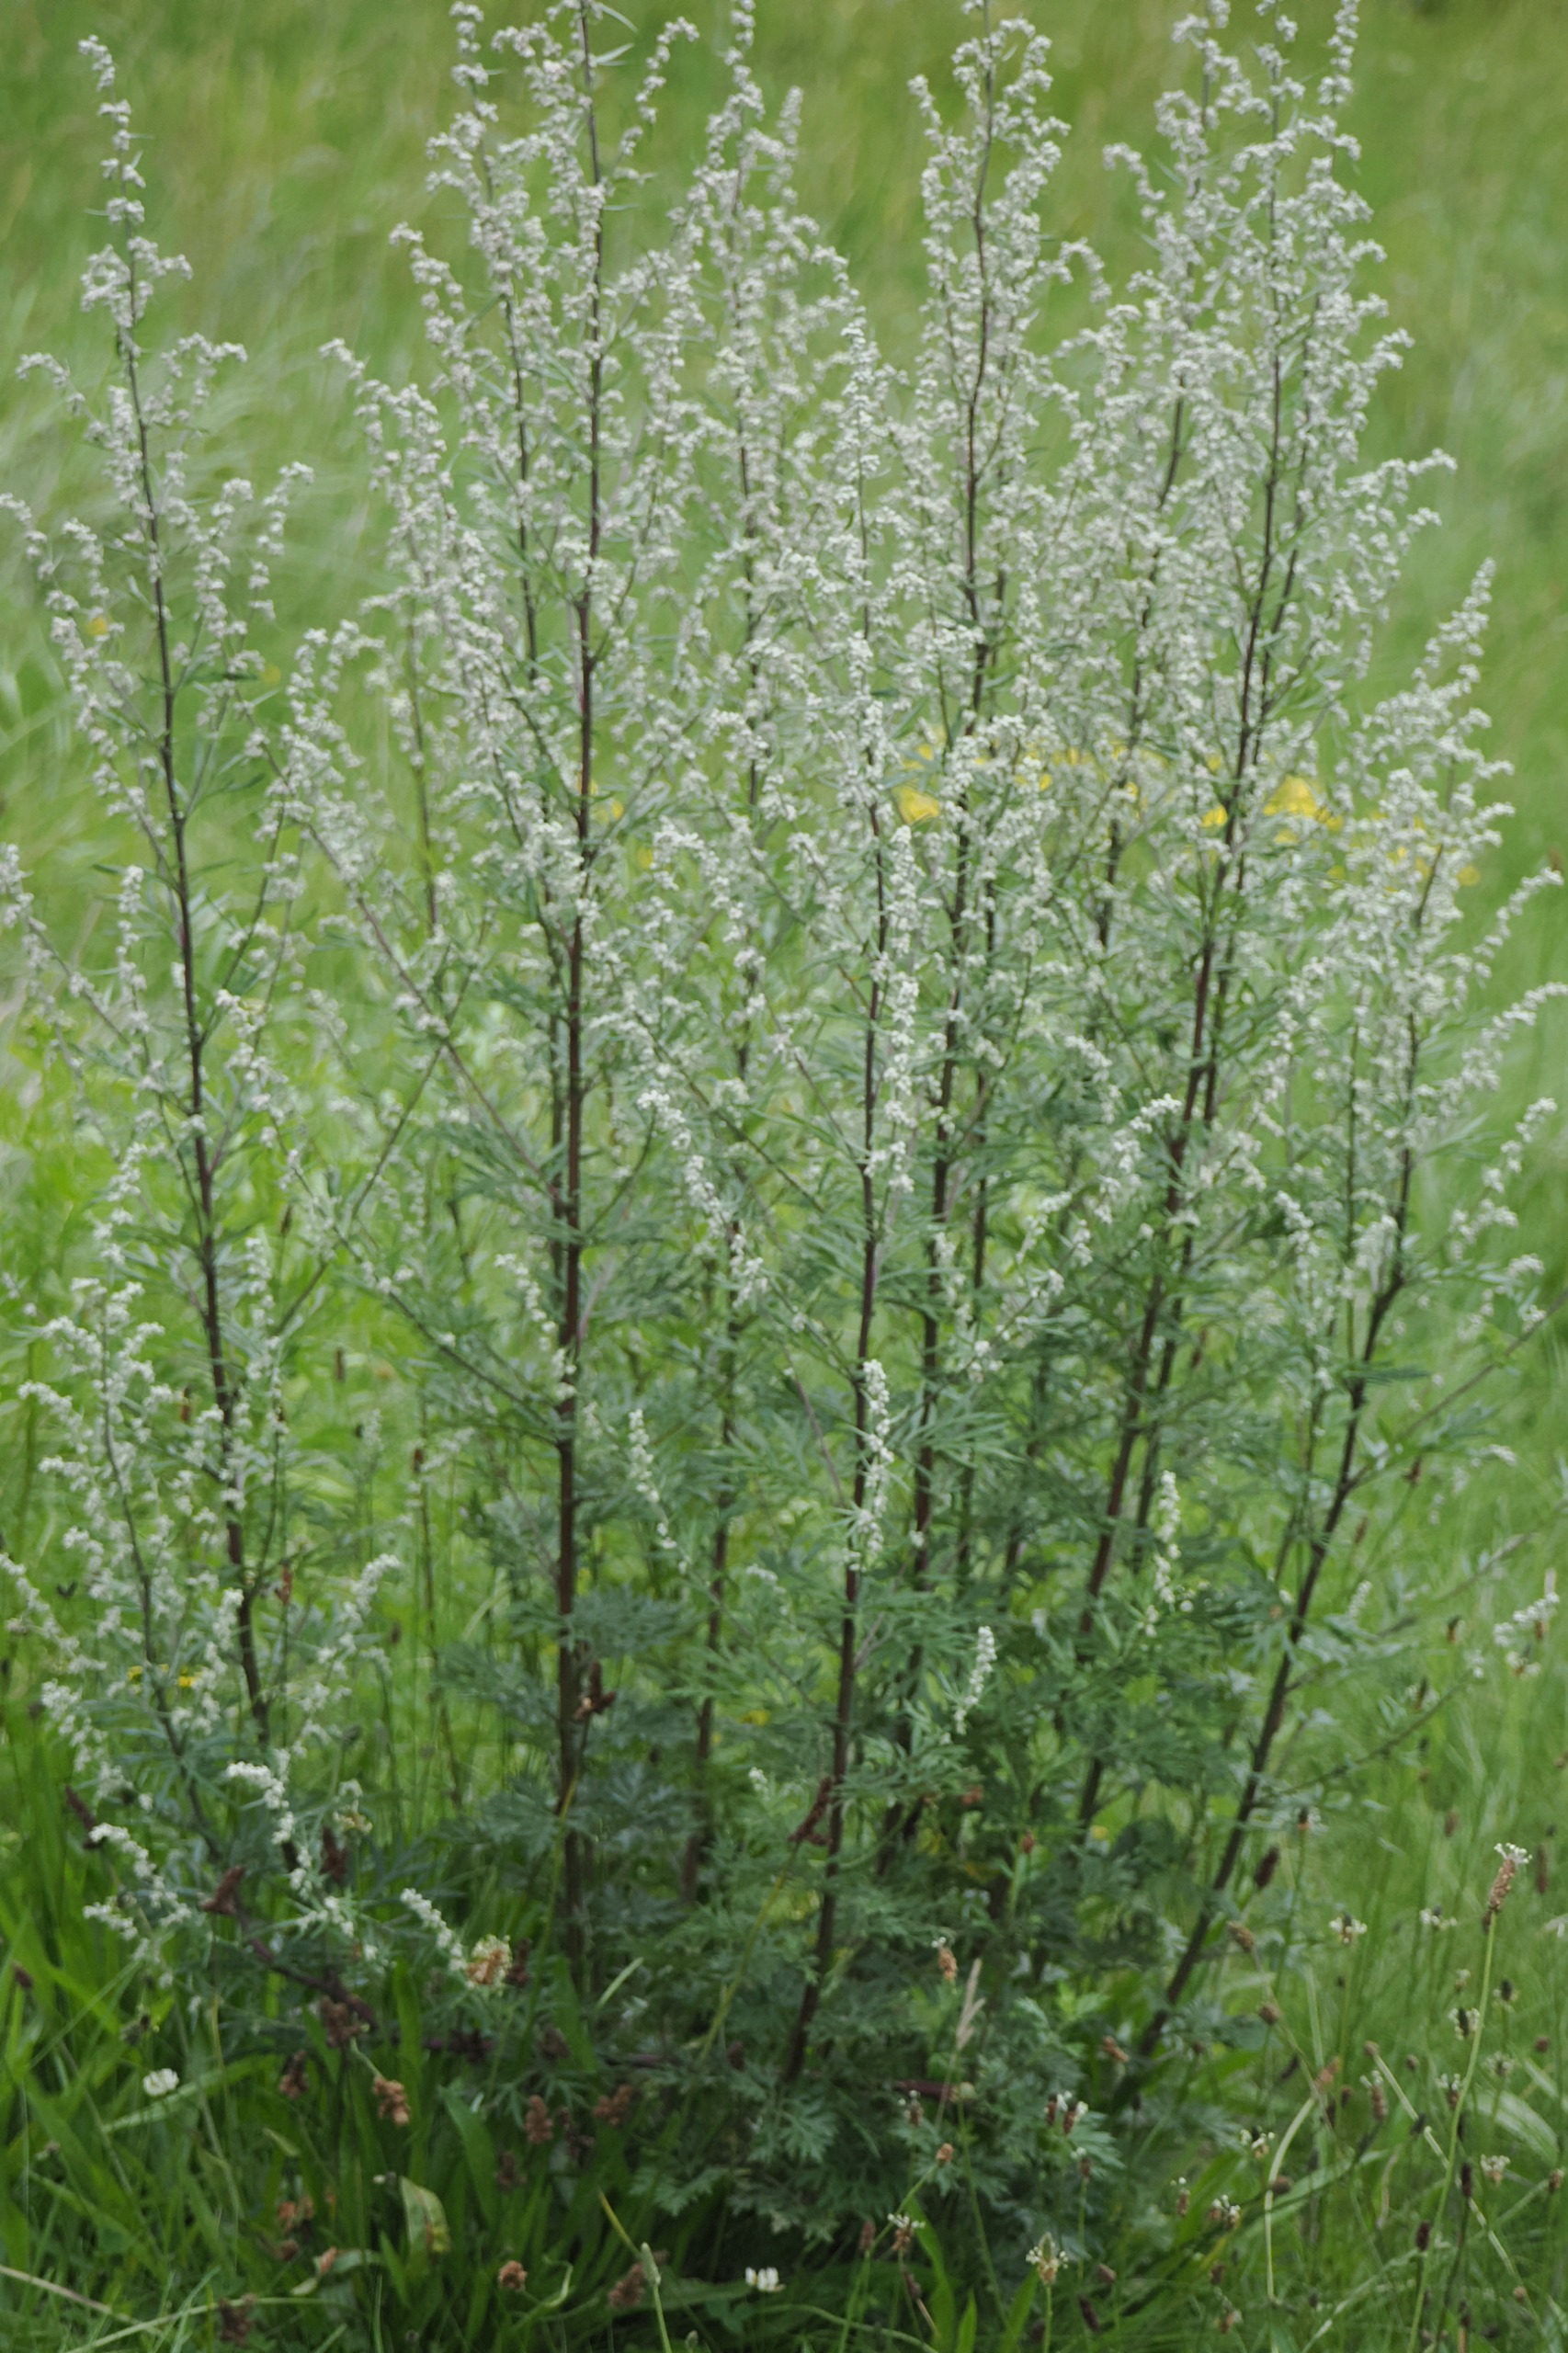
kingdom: Plantae
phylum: Tracheophyta
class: Magnoliopsida
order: Asterales
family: Asteraceae
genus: Artemisia
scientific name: Artemisia vulgaris
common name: Grå-bynke
